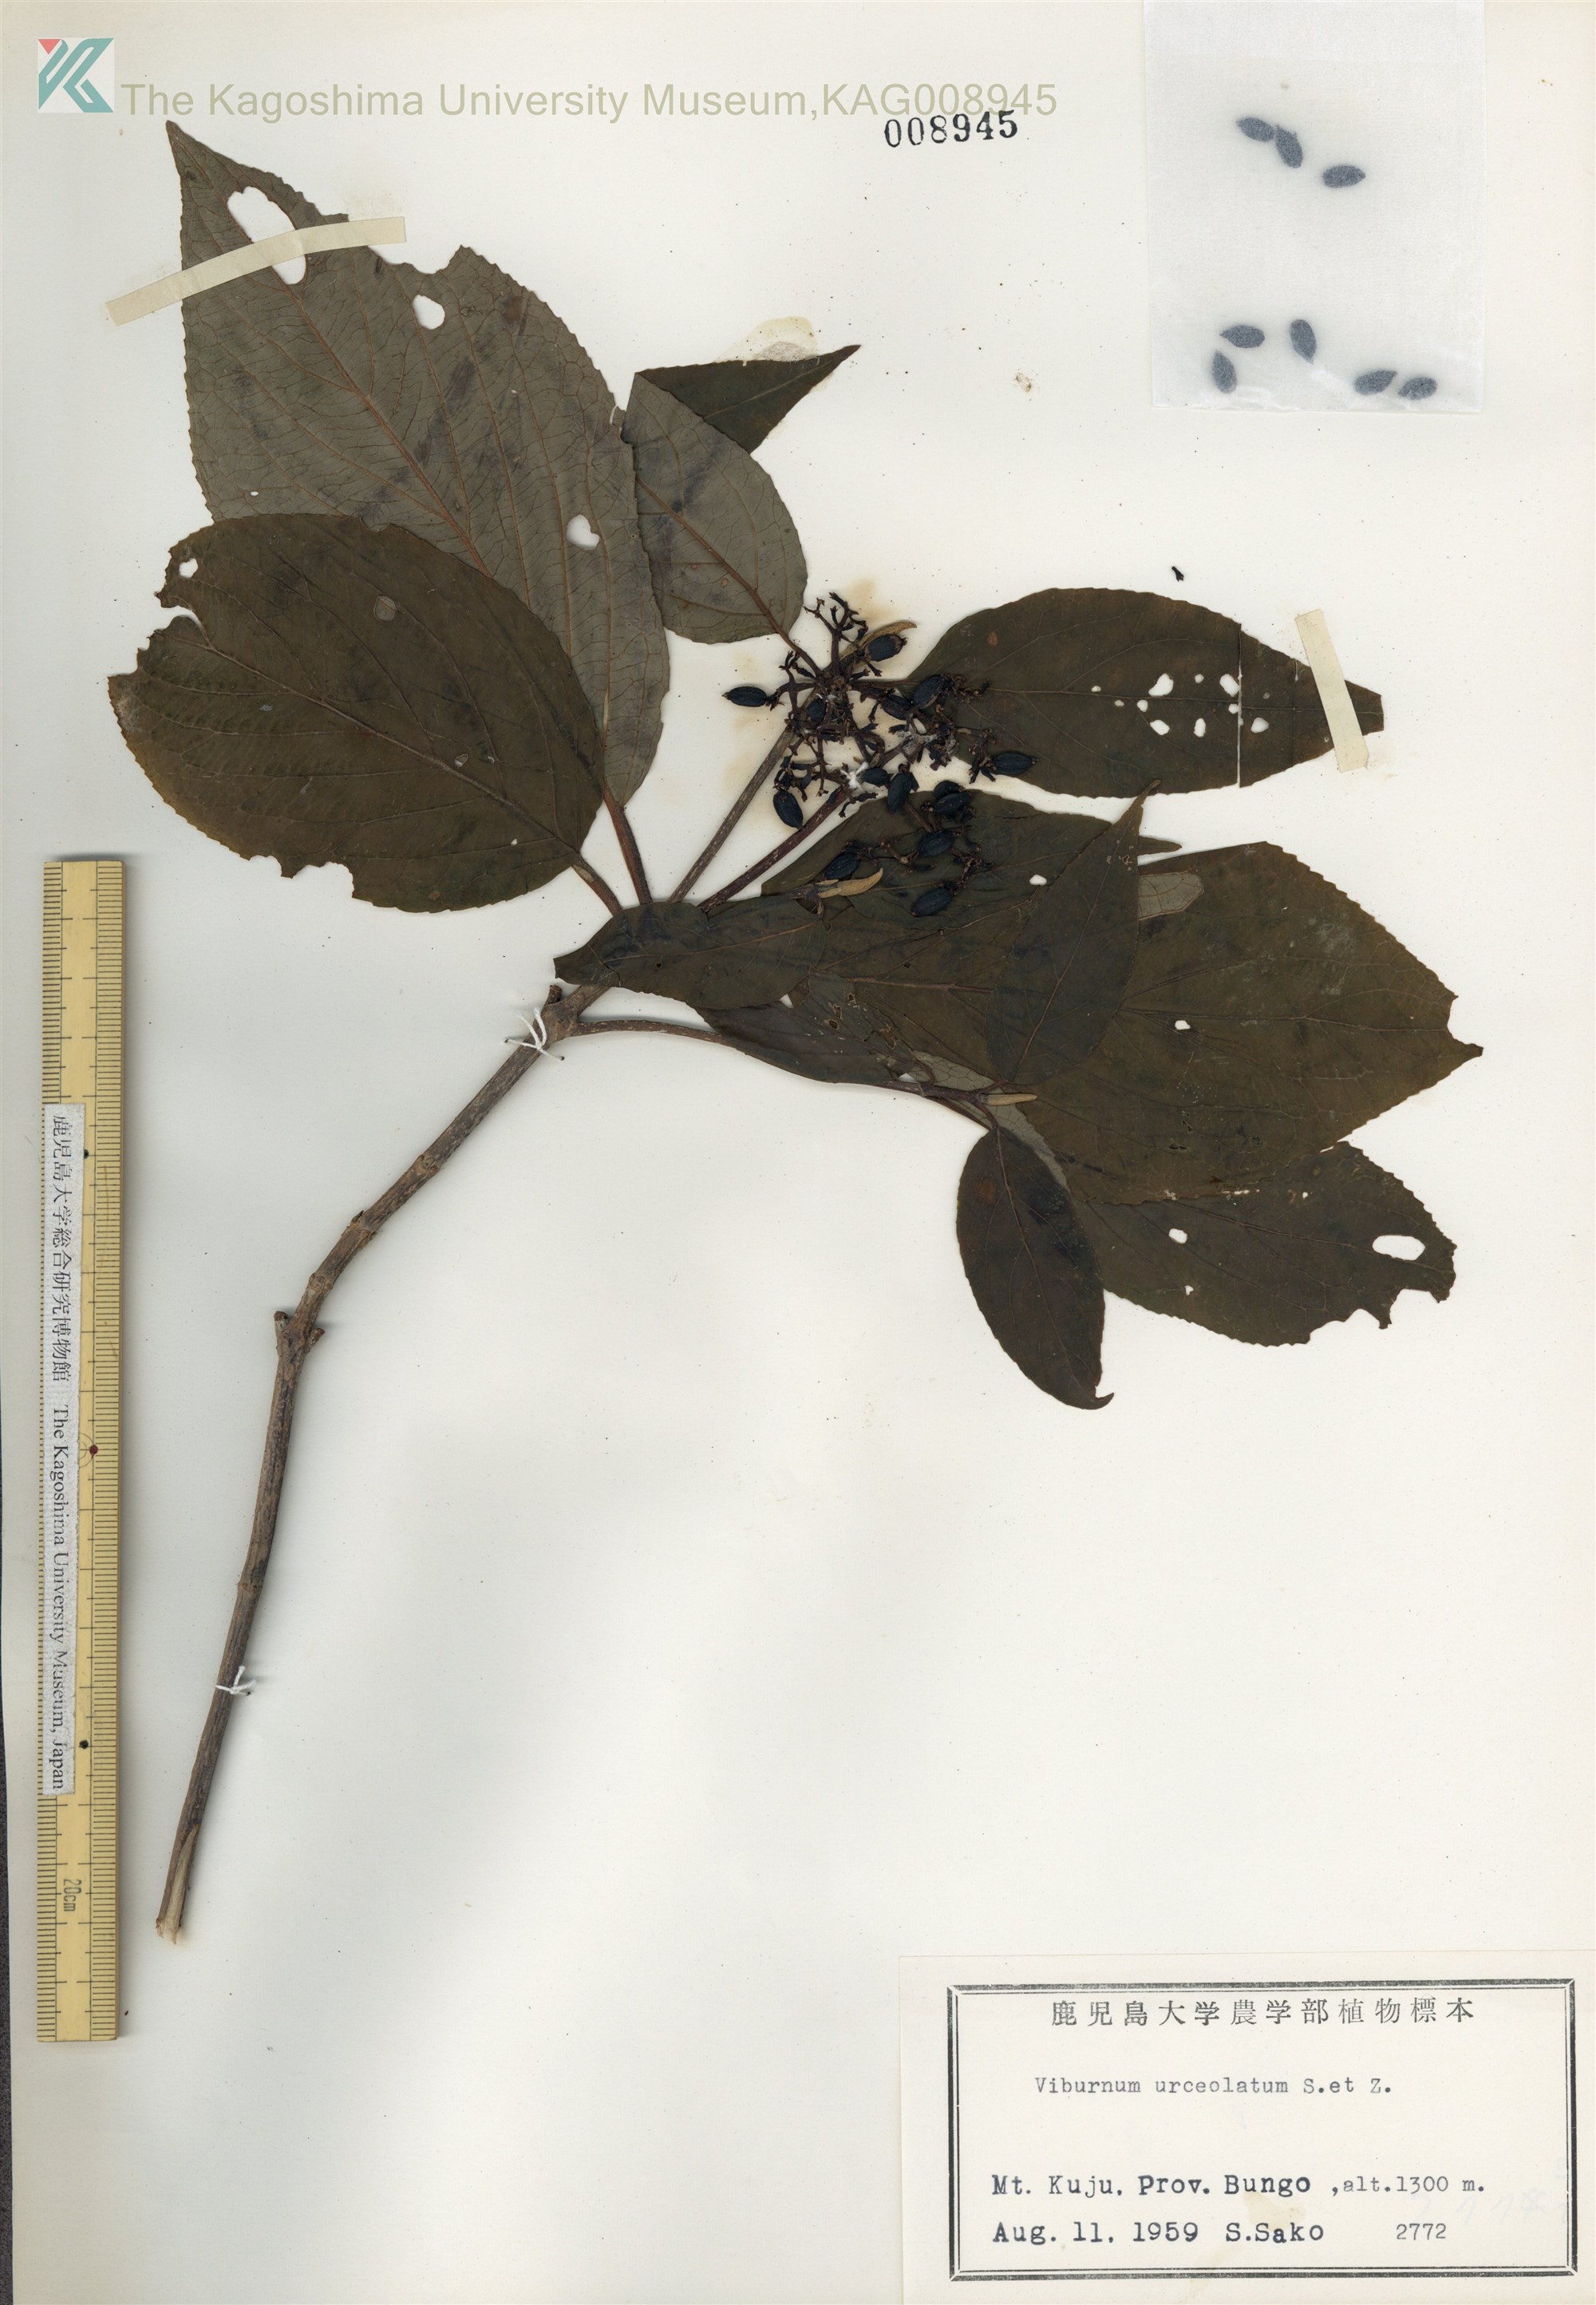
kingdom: Plantae
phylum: Tracheophyta
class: Magnoliopsida
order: Dipsacales
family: Viburnaceae
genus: Viburnum
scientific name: Viburnum urceolatum
